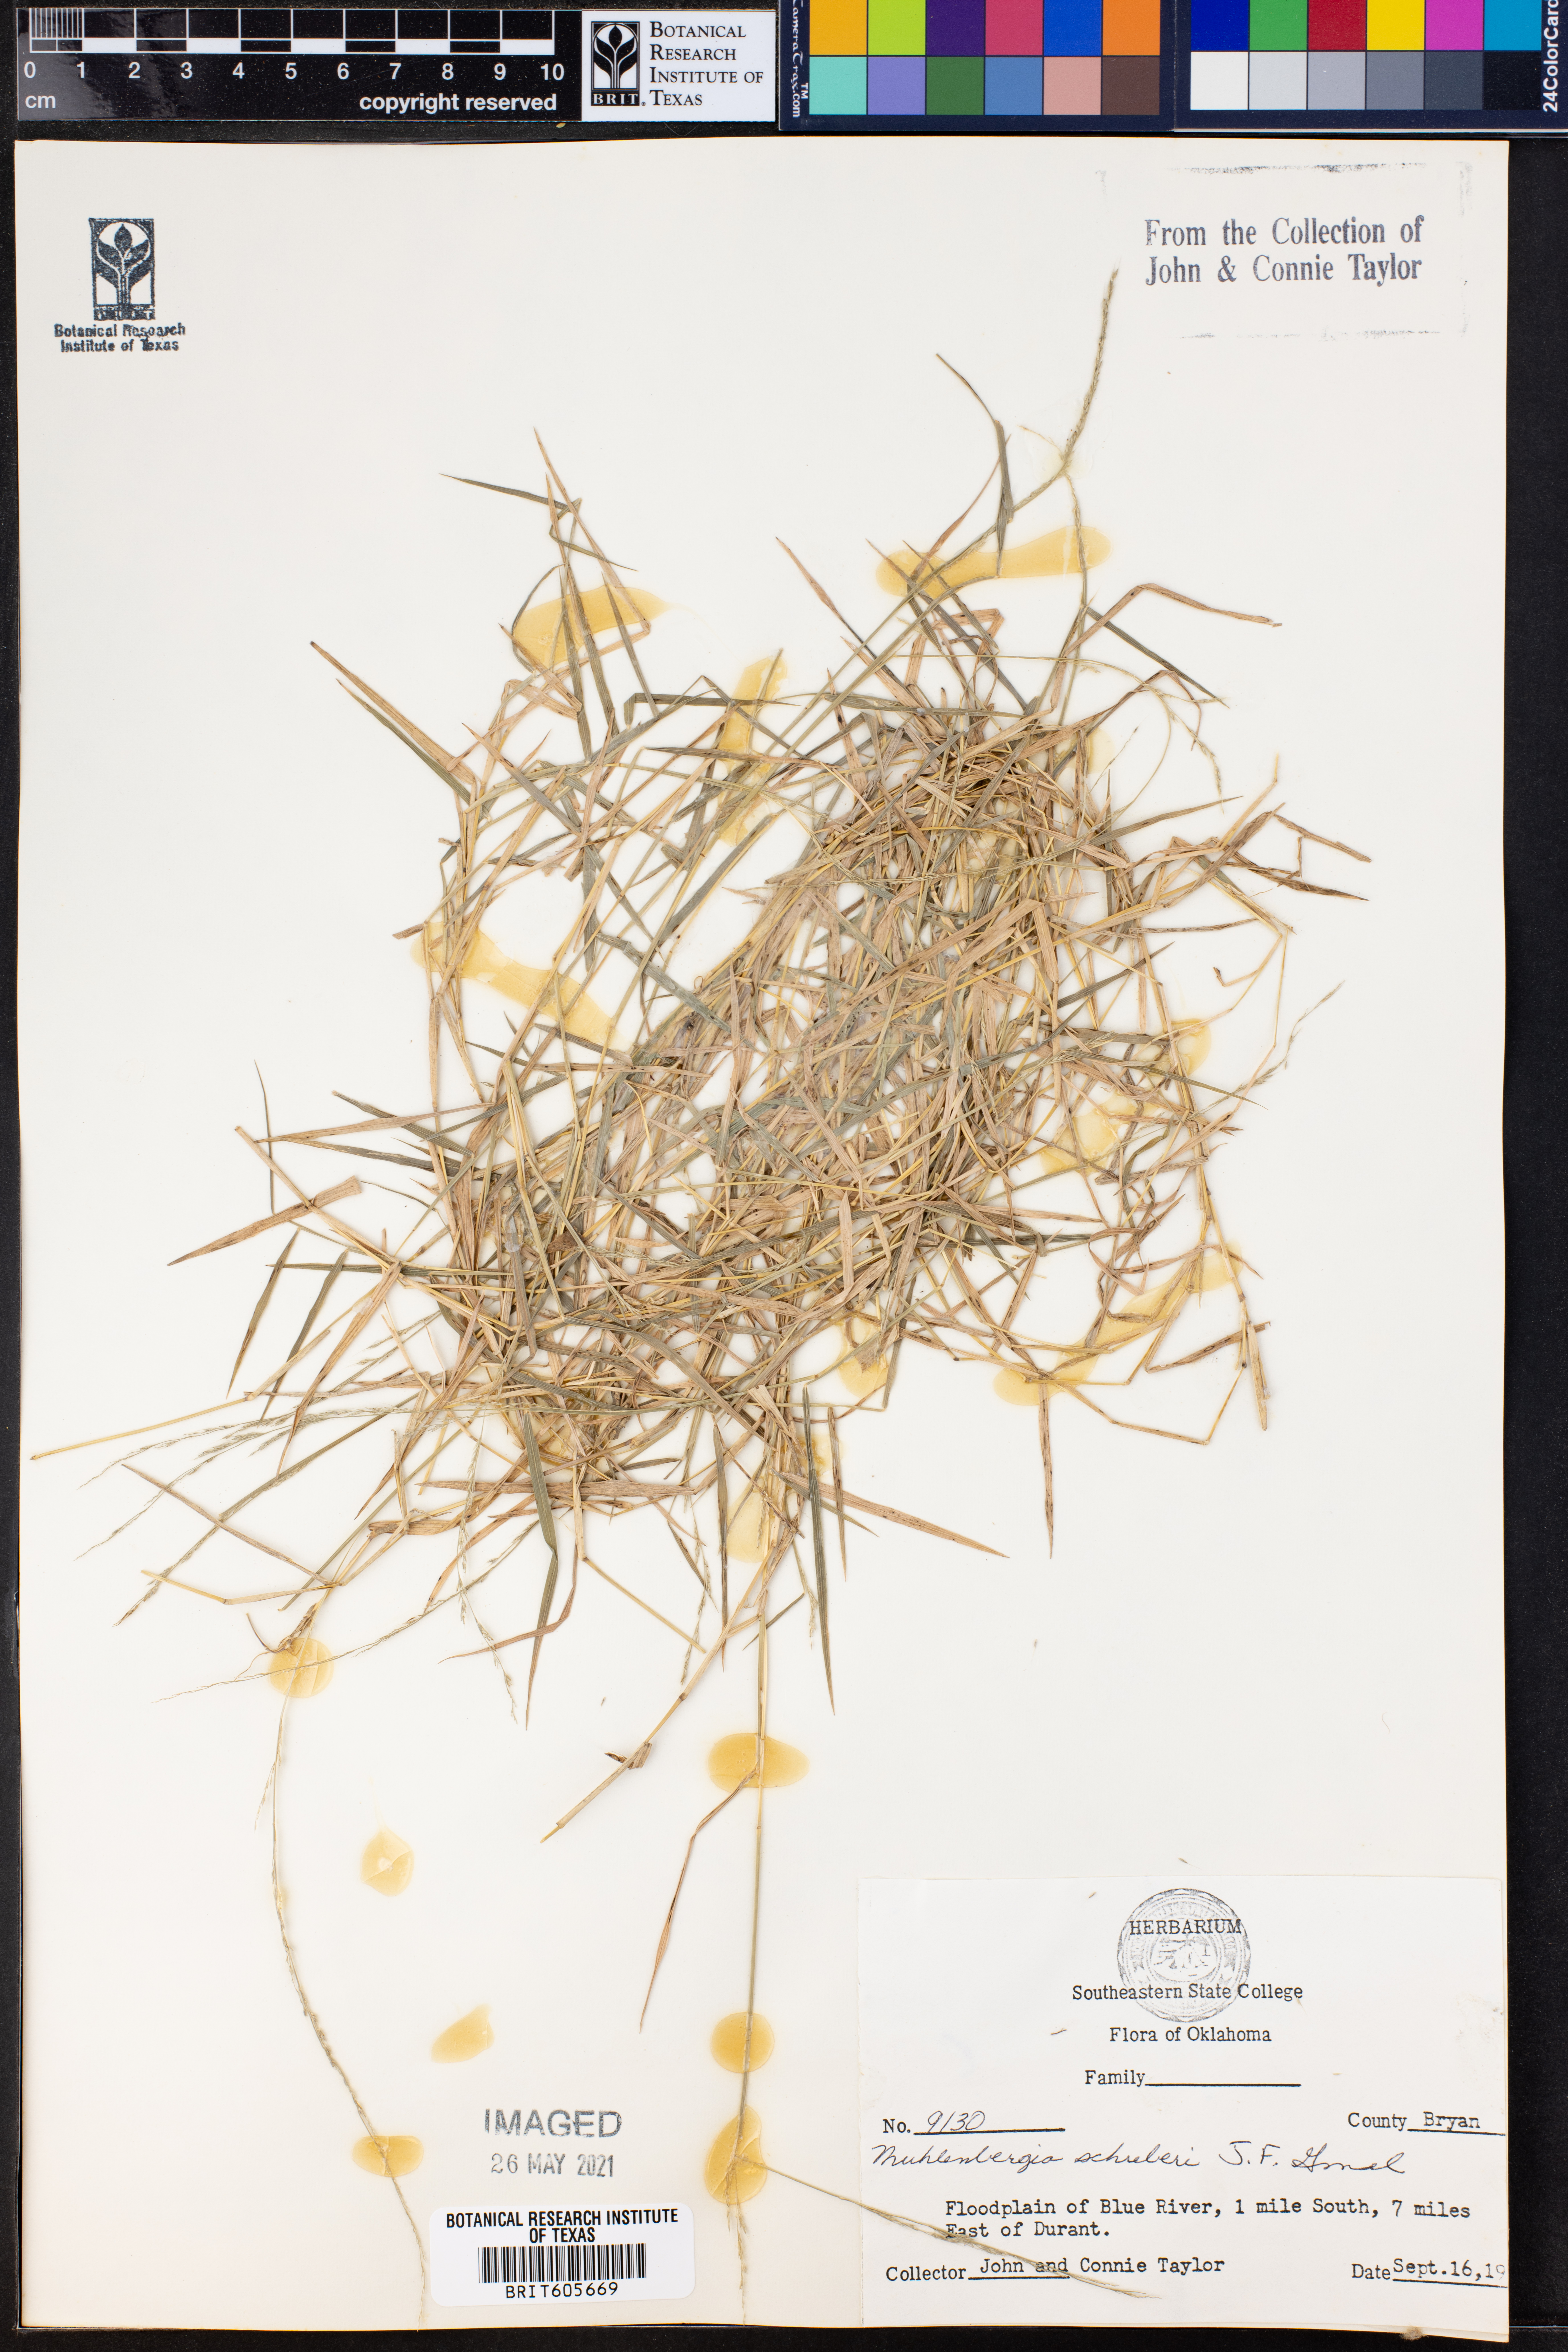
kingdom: Plantae
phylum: Tracheophyta
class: Liliopsida
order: Poales
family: Poaceae
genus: Muhlenbergia
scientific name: Muhlenbergia schreberi
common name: Nimblewill
